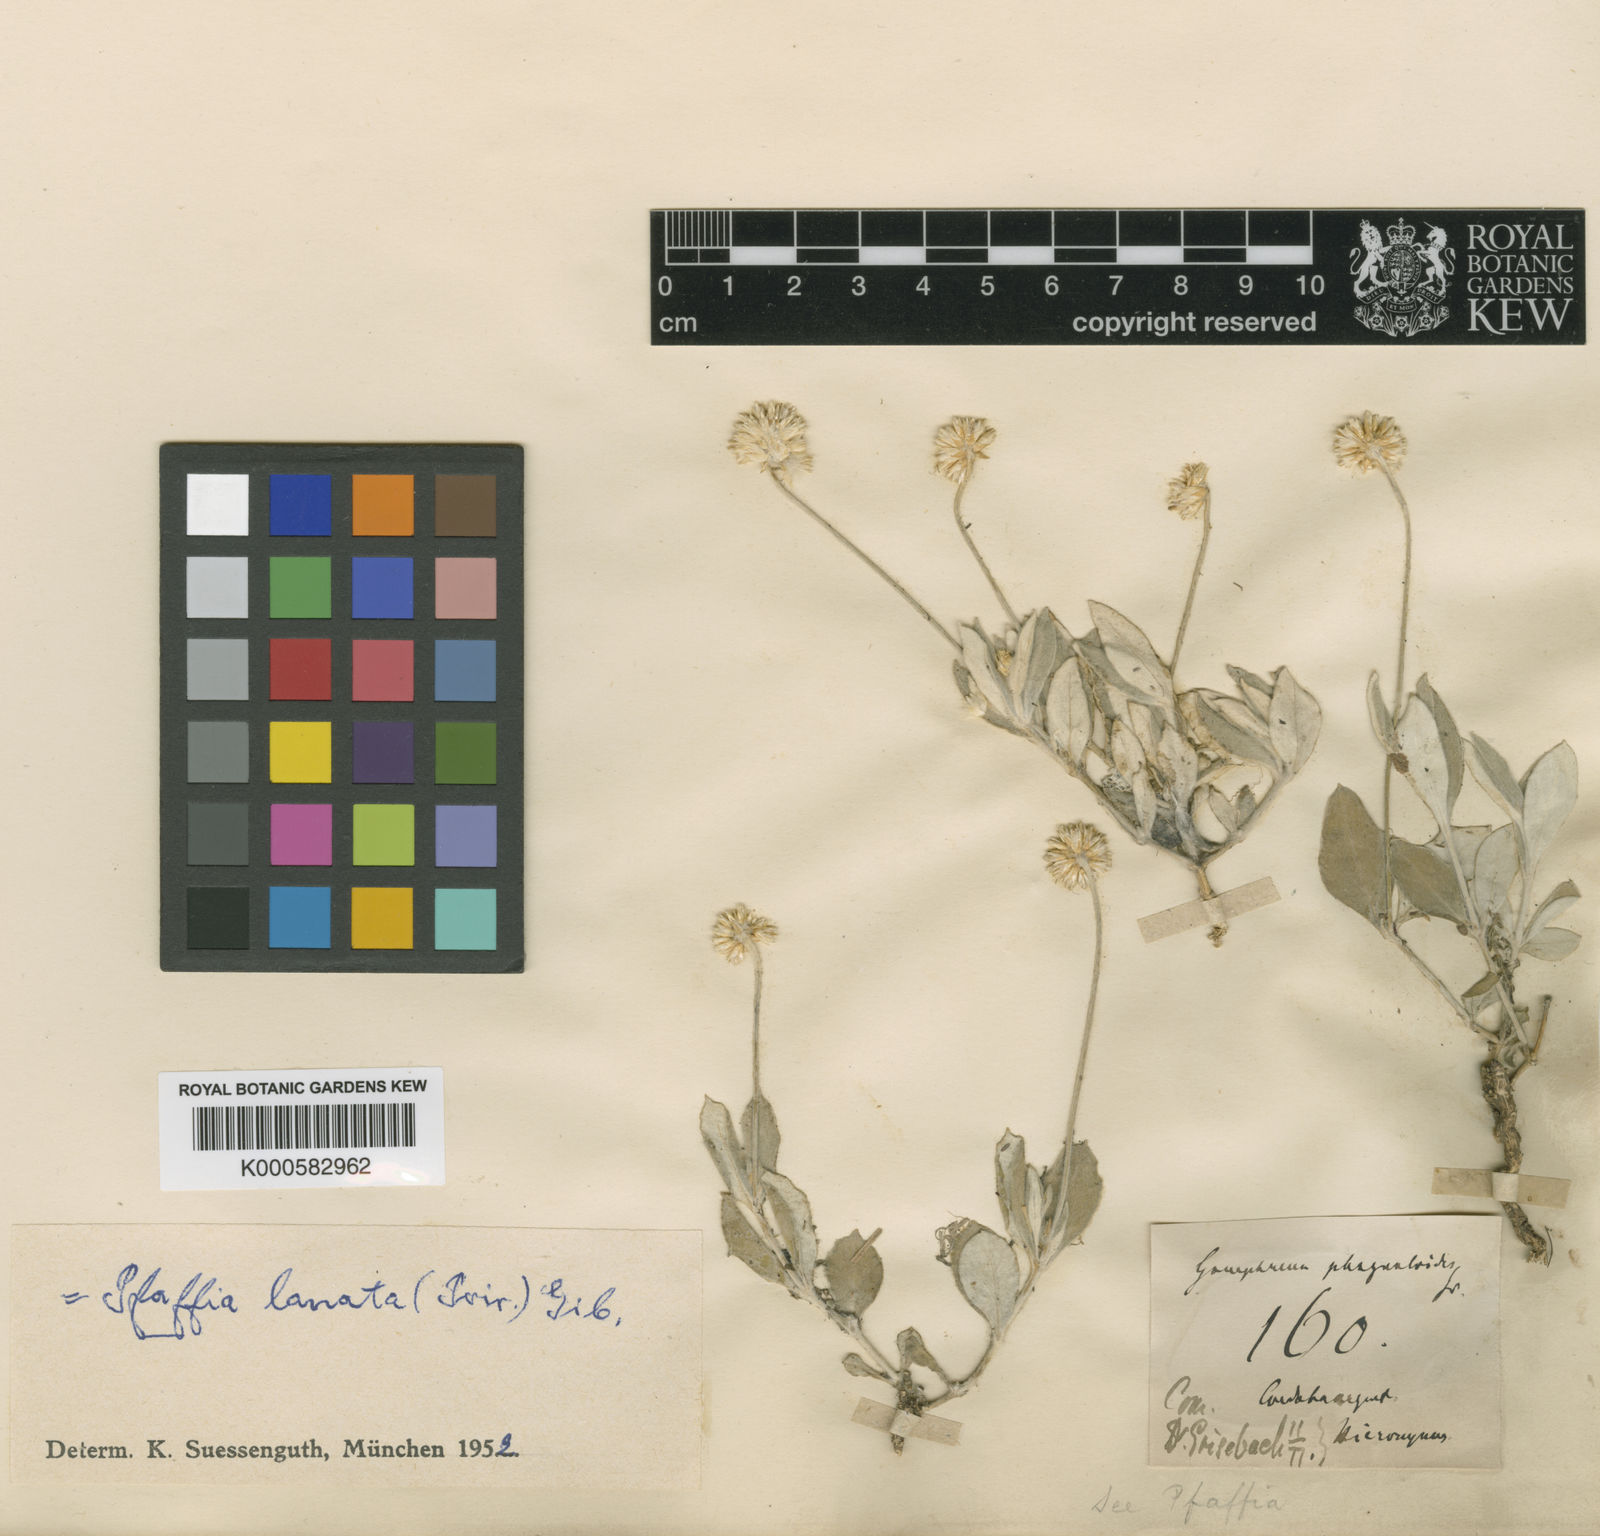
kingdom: Plantae
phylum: Tracheophyta
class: Magnoliopsida
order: Caryophyllales
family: Amaranthaceae
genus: Pfaffia
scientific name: Pfaffia
